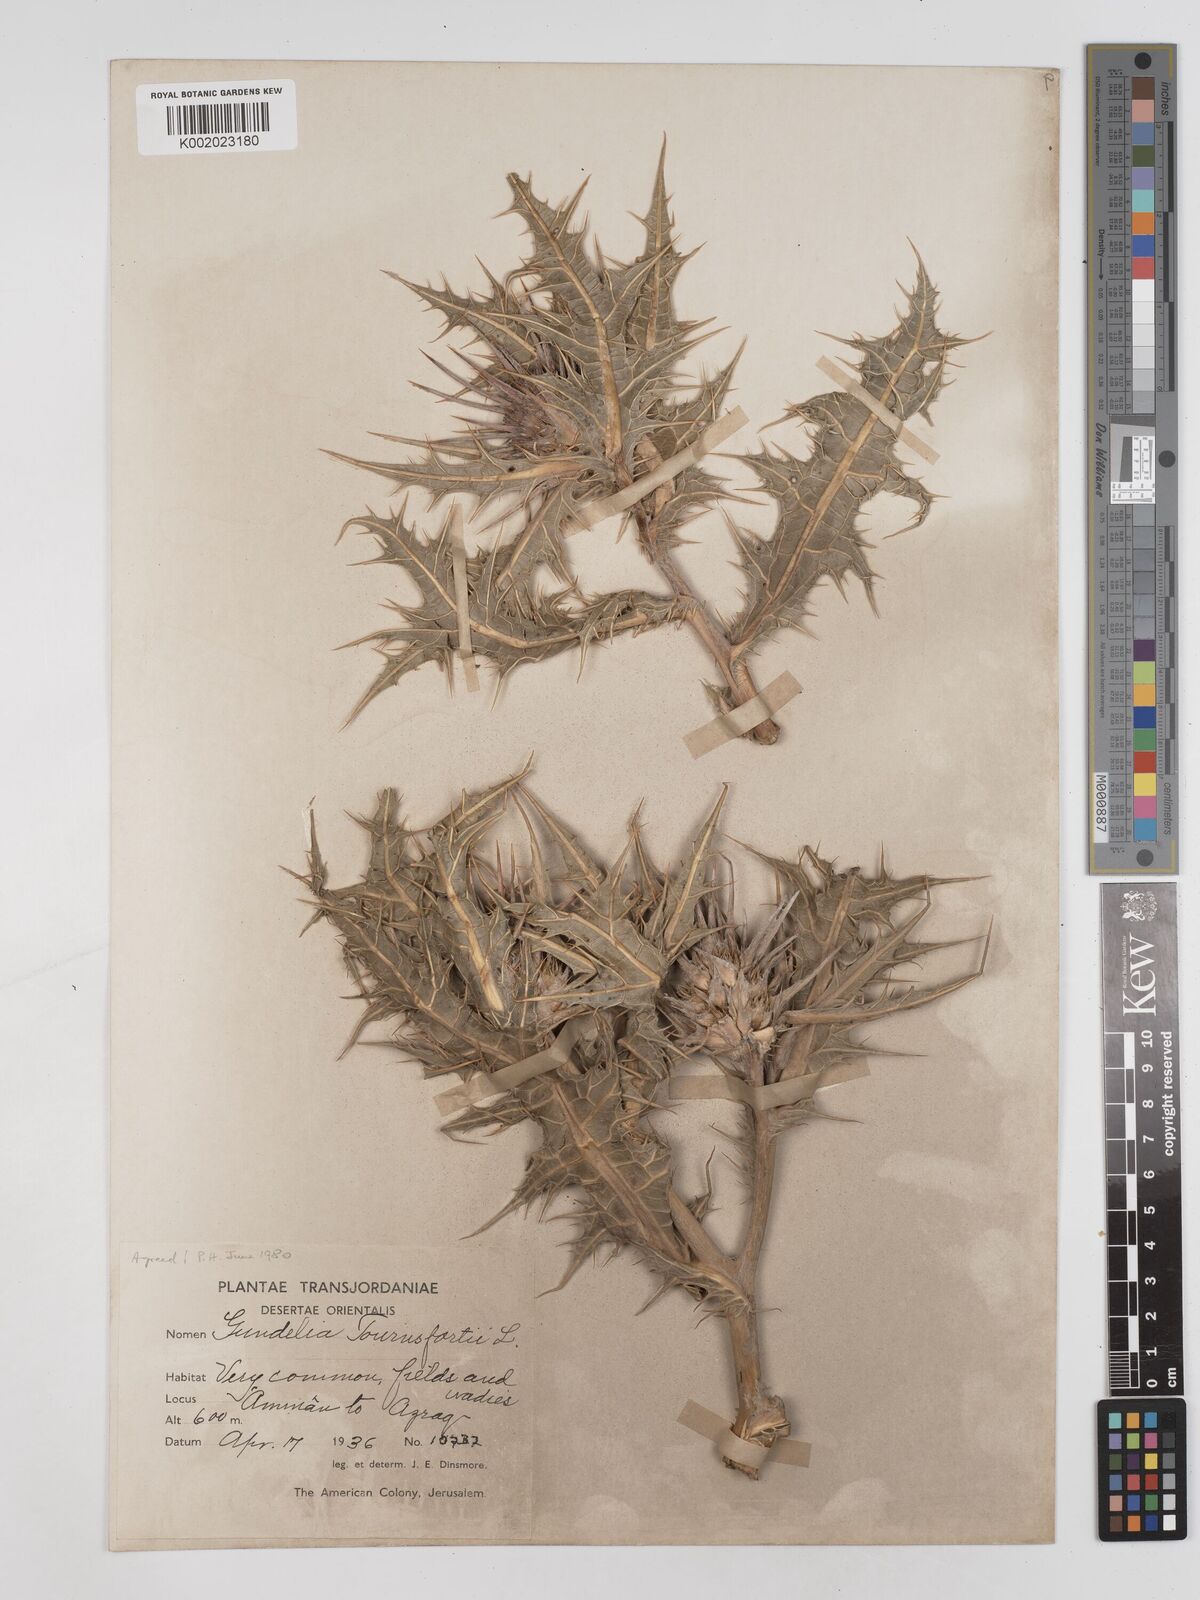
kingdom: Plantae
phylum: Tracheophyta
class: Magnoliopsida
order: Asterales
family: Asteraceae
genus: Gundelia
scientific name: Gundelia tournefortii
